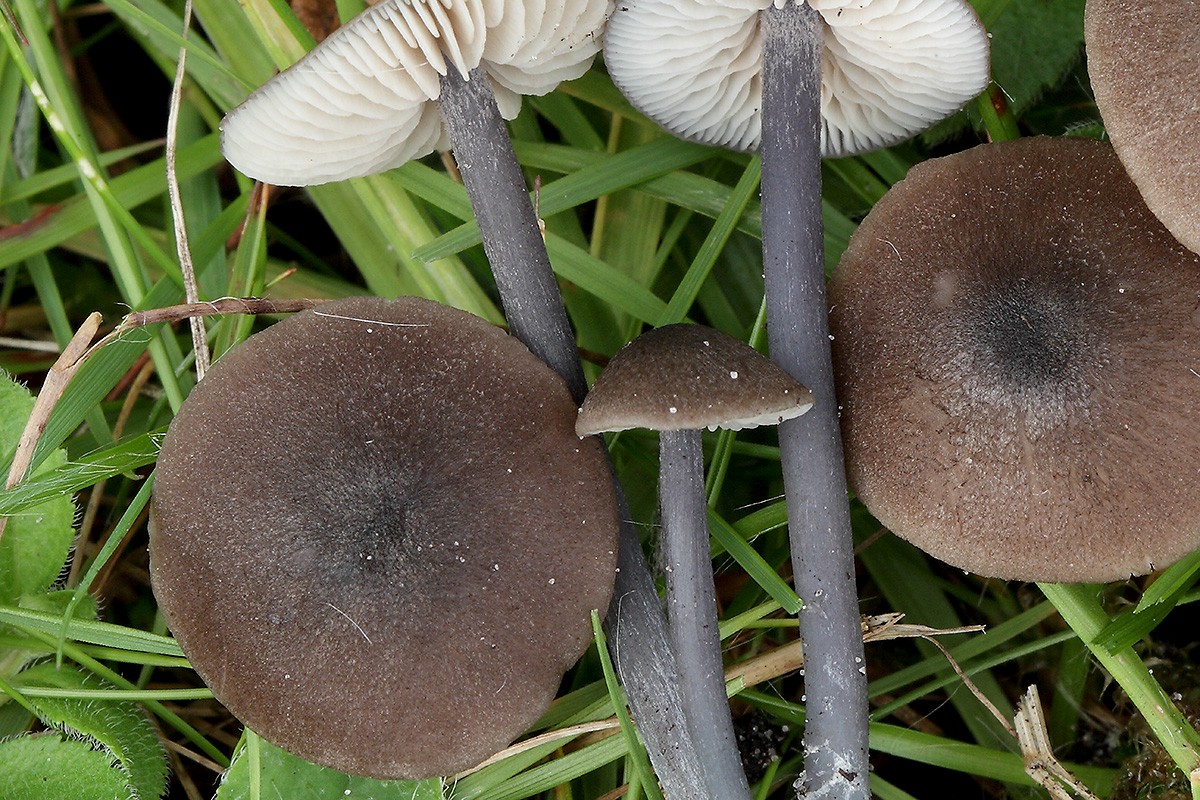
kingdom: Fungi
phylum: Basidiomycota
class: Agaricomycetes
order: Agaricales
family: Entolomataceae
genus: Entoloma
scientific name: Entoloma atrocoeruleum
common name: sortblå rødblad
